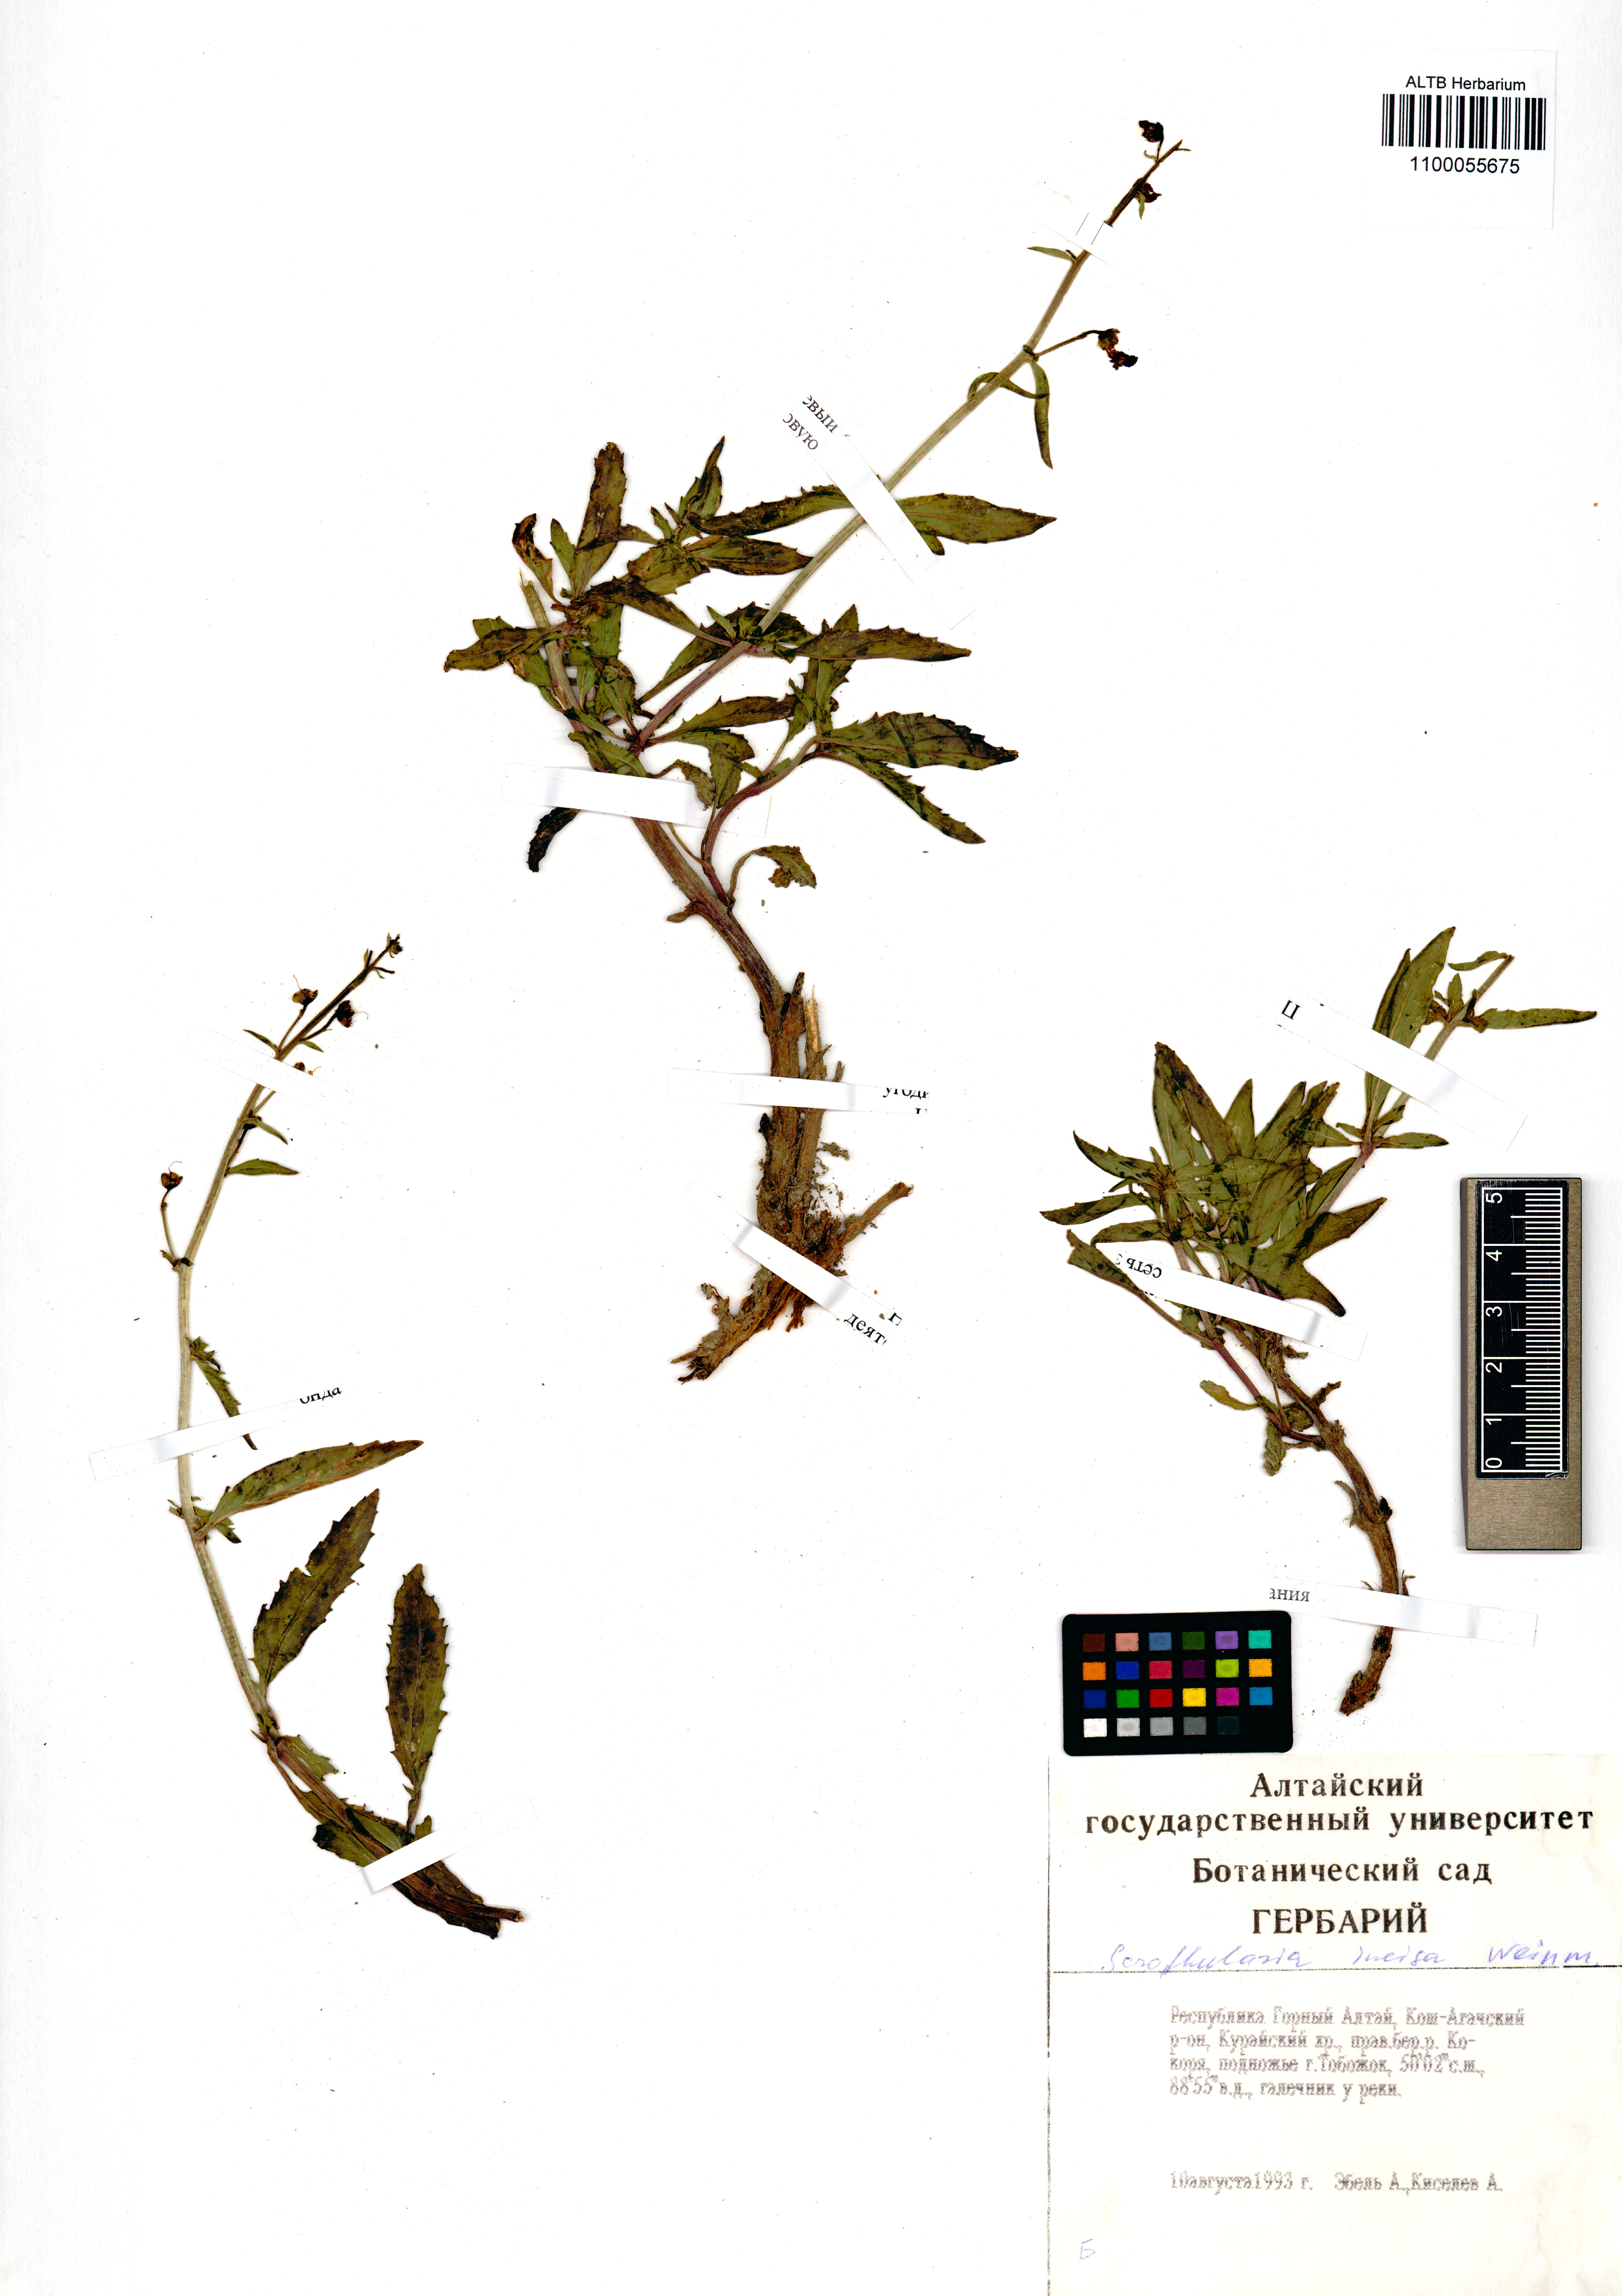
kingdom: Plantae
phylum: Tracheophyta
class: Magnoliopsida
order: Lamiales
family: Scrophulariaceae
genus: Scrophularia
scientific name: Scrophularia incisa
